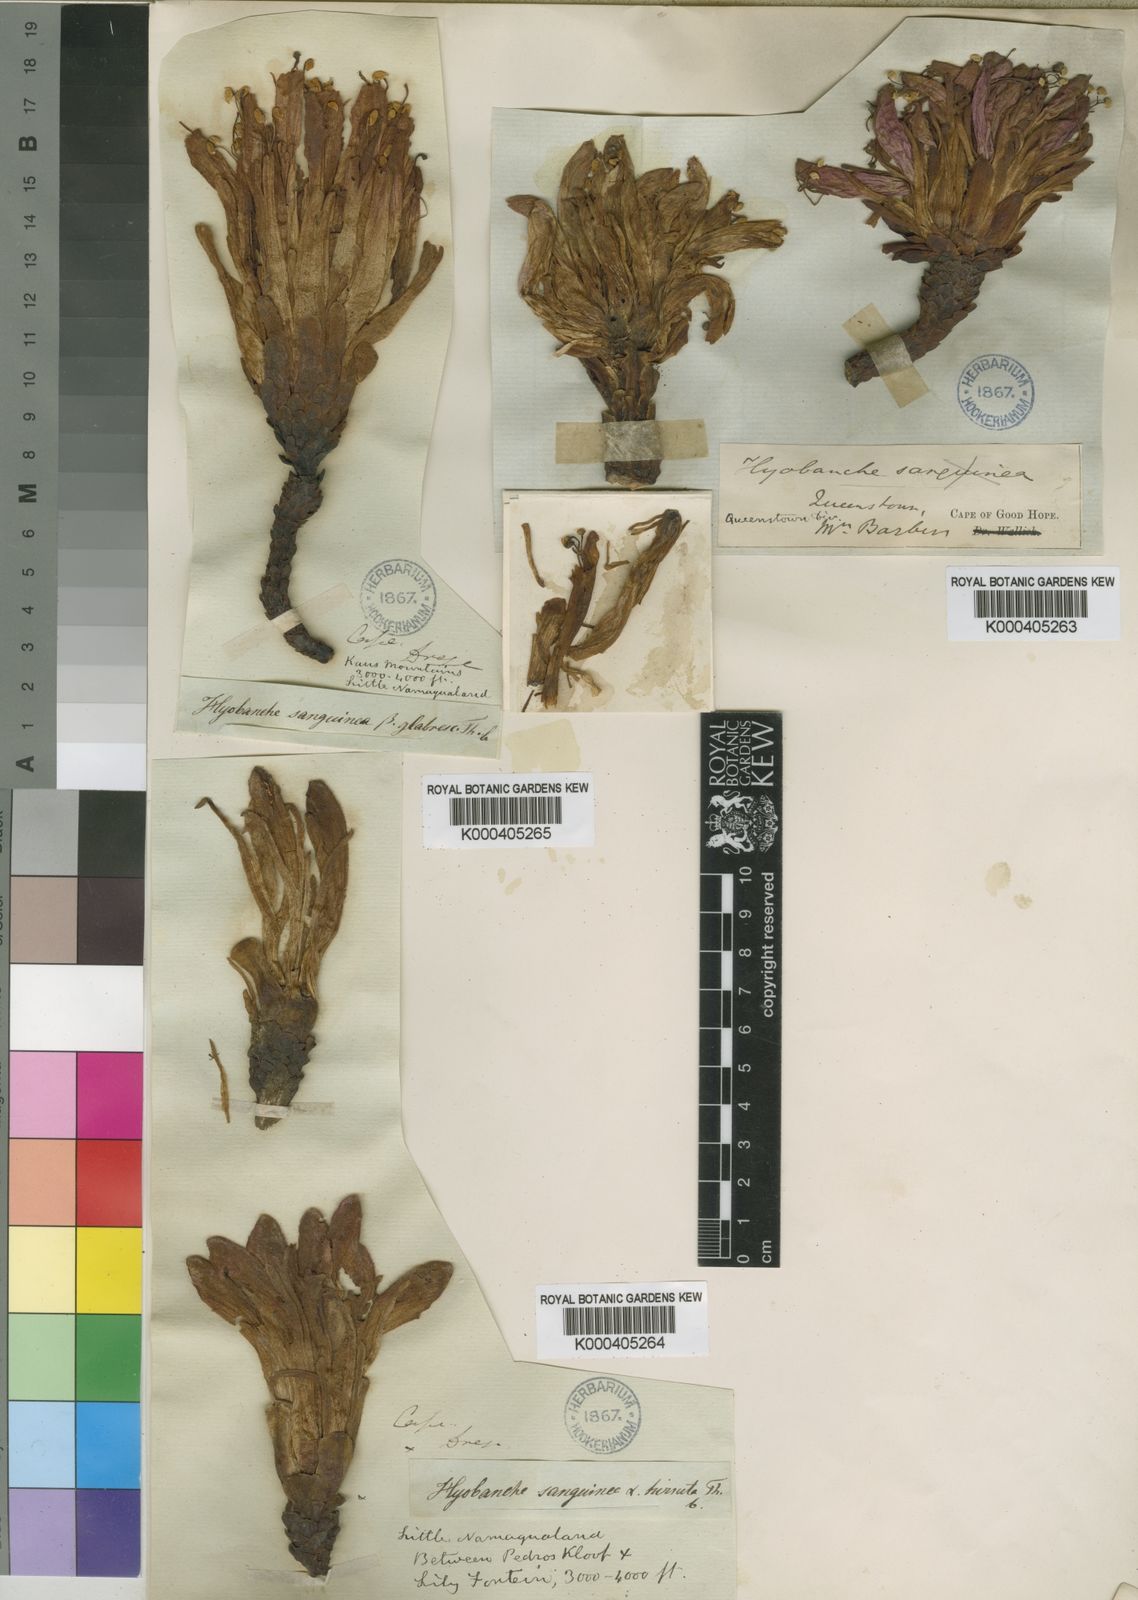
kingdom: Plantae
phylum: Tracheophyta
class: Magnoliopsida
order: Lamiales
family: Orobanchaceae
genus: Hyobanche
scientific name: Hyobanche glabrata
